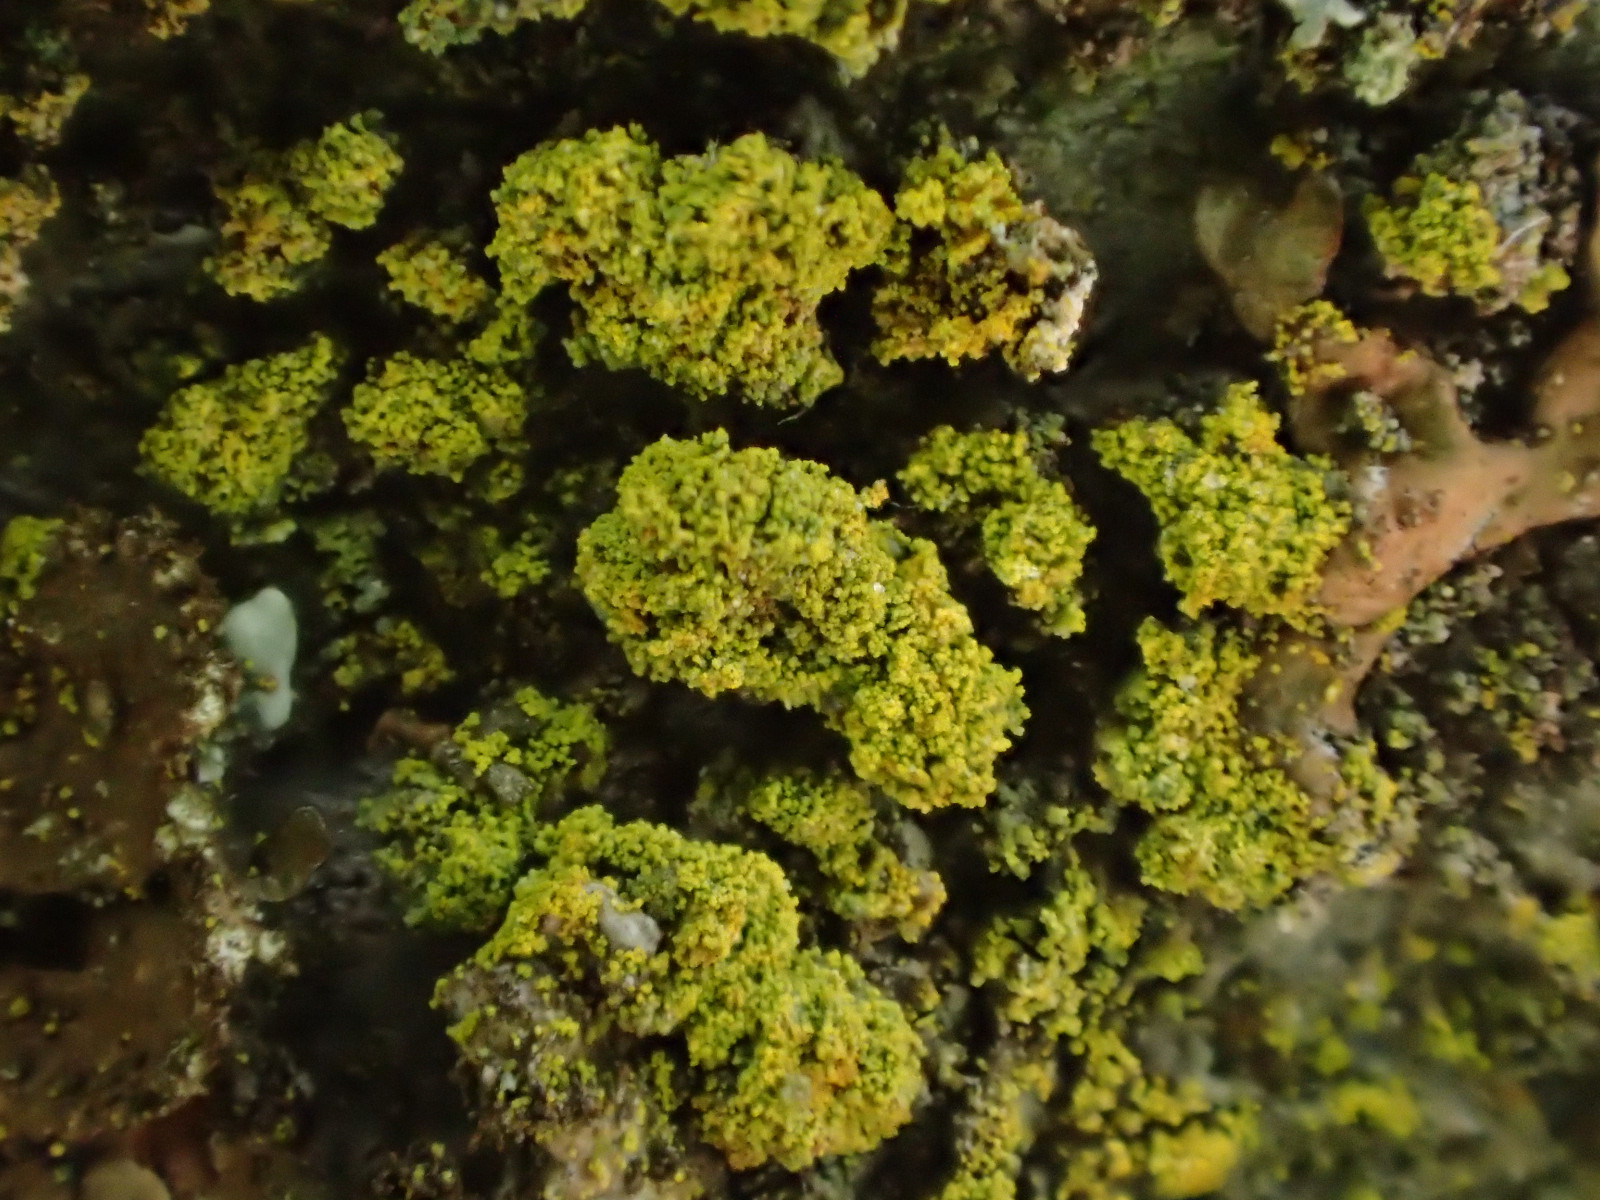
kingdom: Fungi
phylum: Ascomycota
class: Candelariomycetes
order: Candelariales
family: Candelariaceae
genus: Candelariella
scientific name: Candelariella reflexa
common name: grynskællet æggeblommelav
